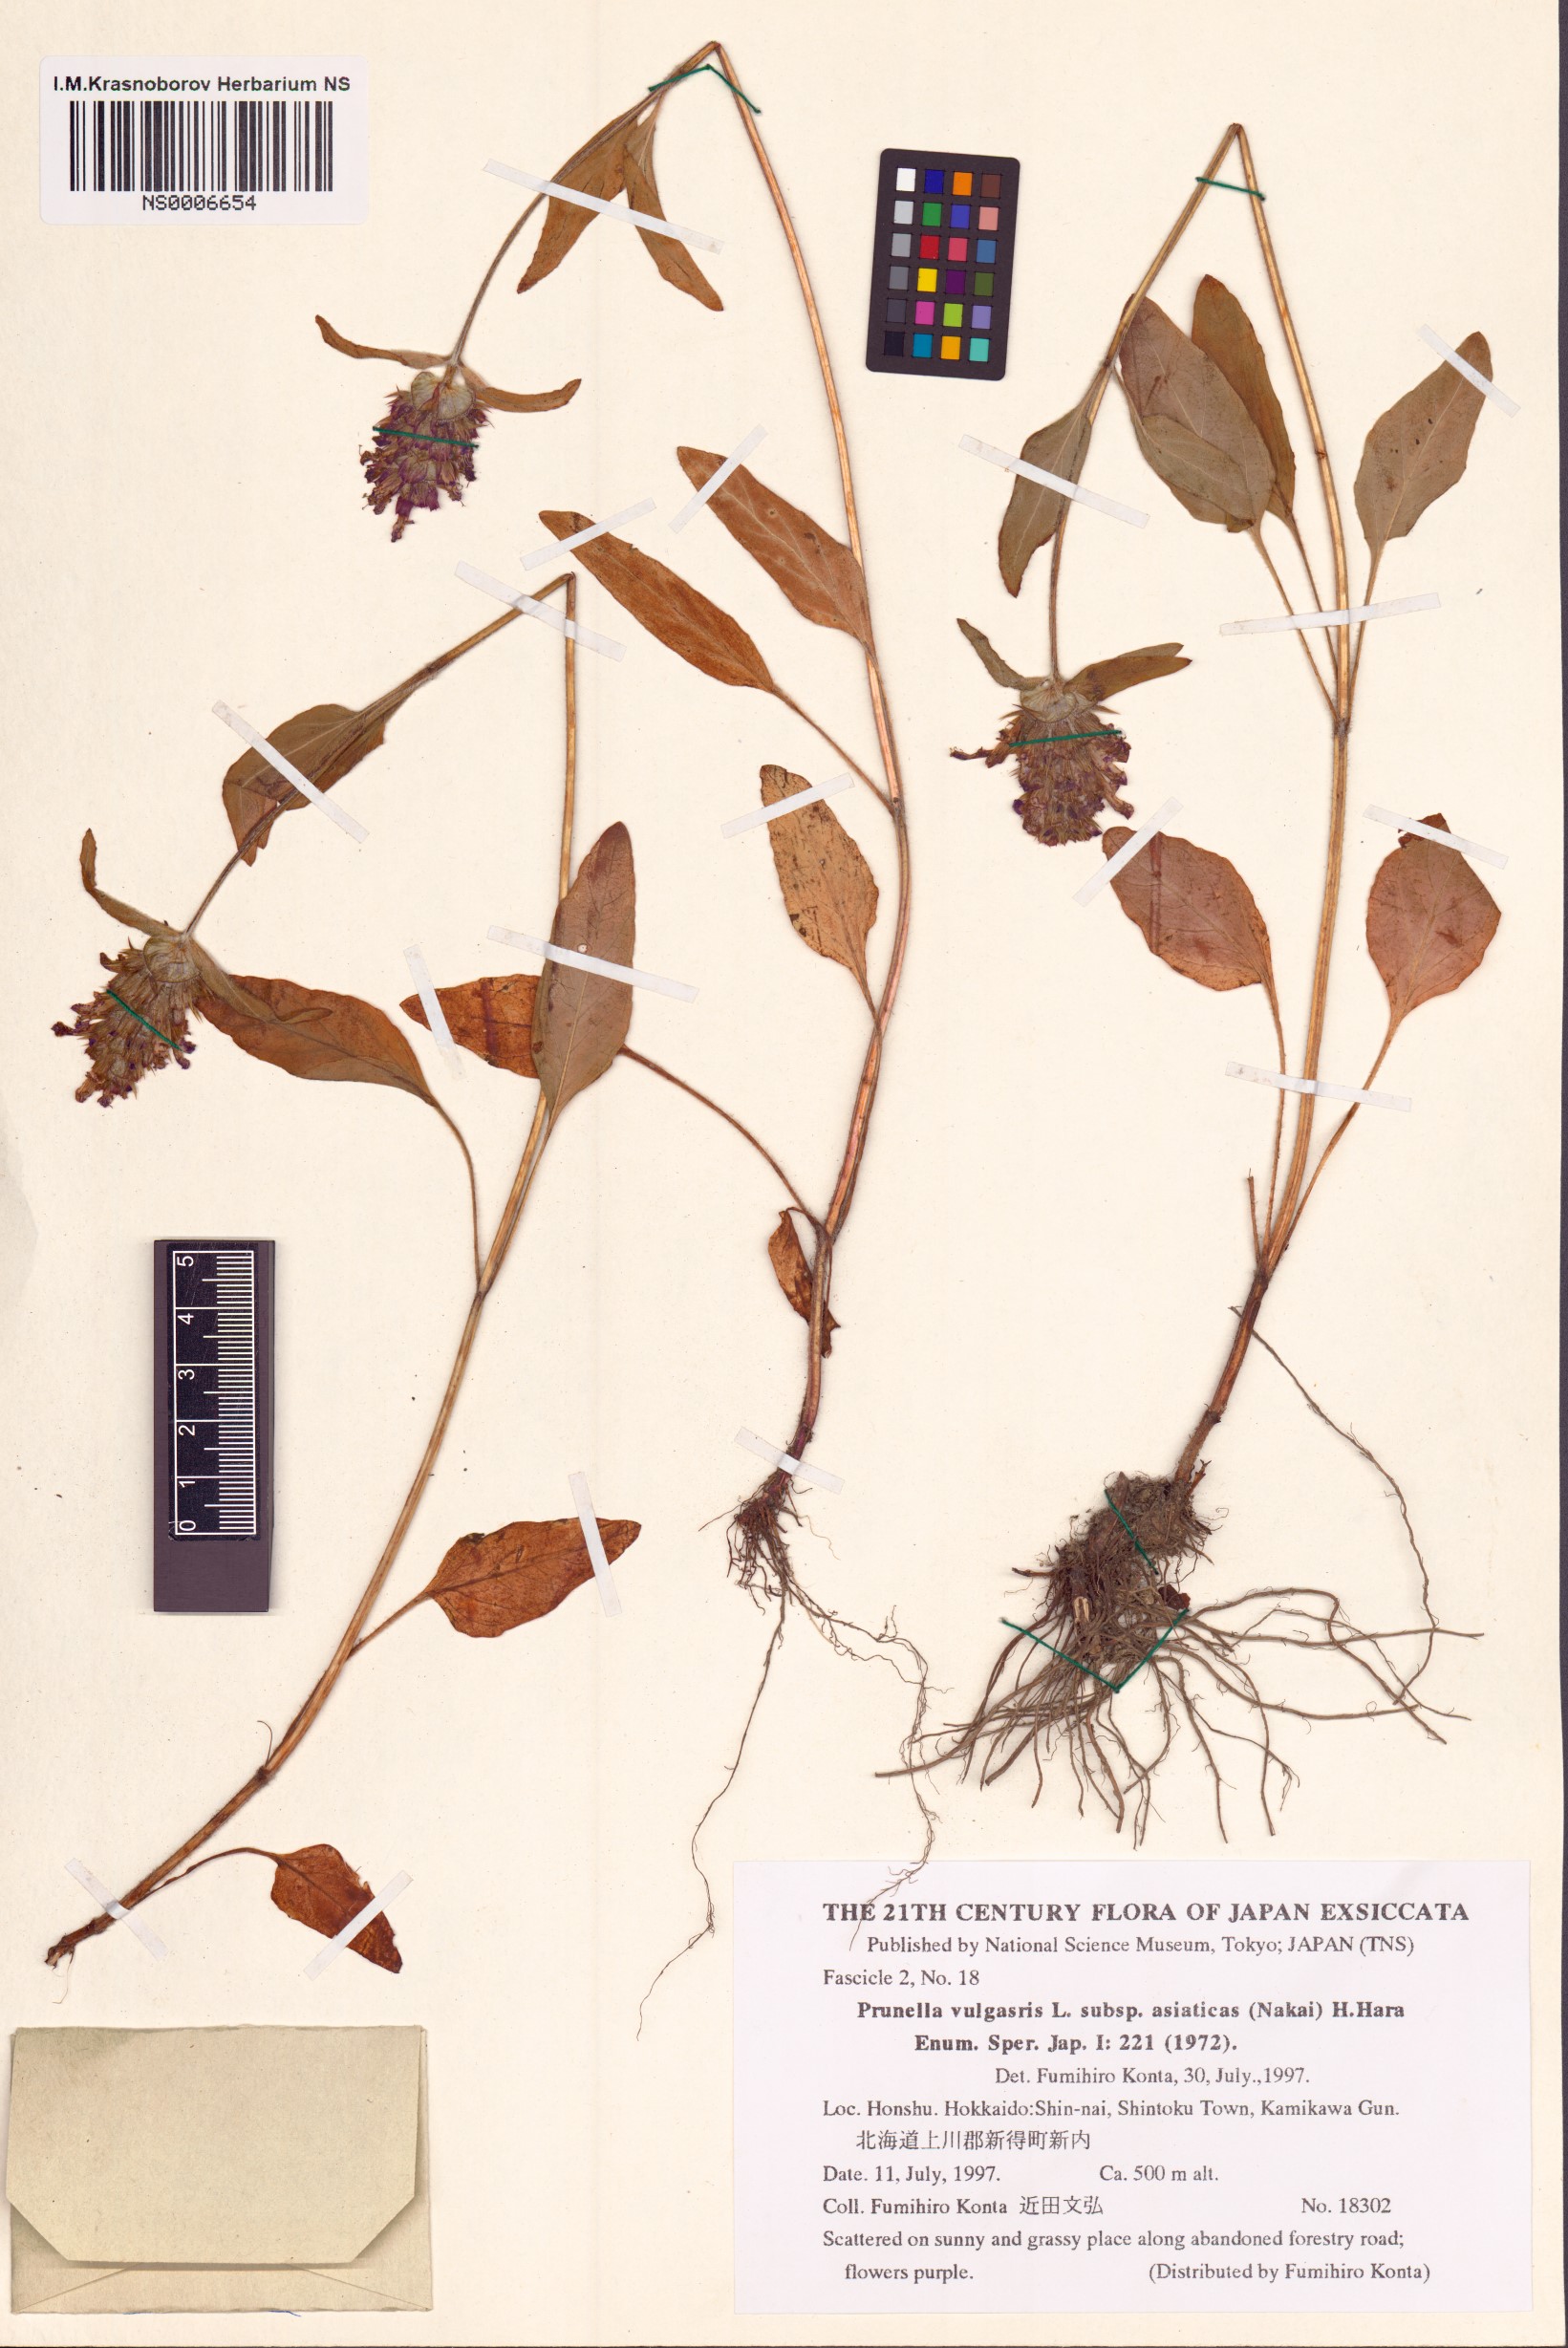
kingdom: Plantae
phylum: Tracheophyta
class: Magnoliopsida
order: Lamiales
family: Lamiaceae
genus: Prunella
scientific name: Prunella vulgaris
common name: Heal-all
